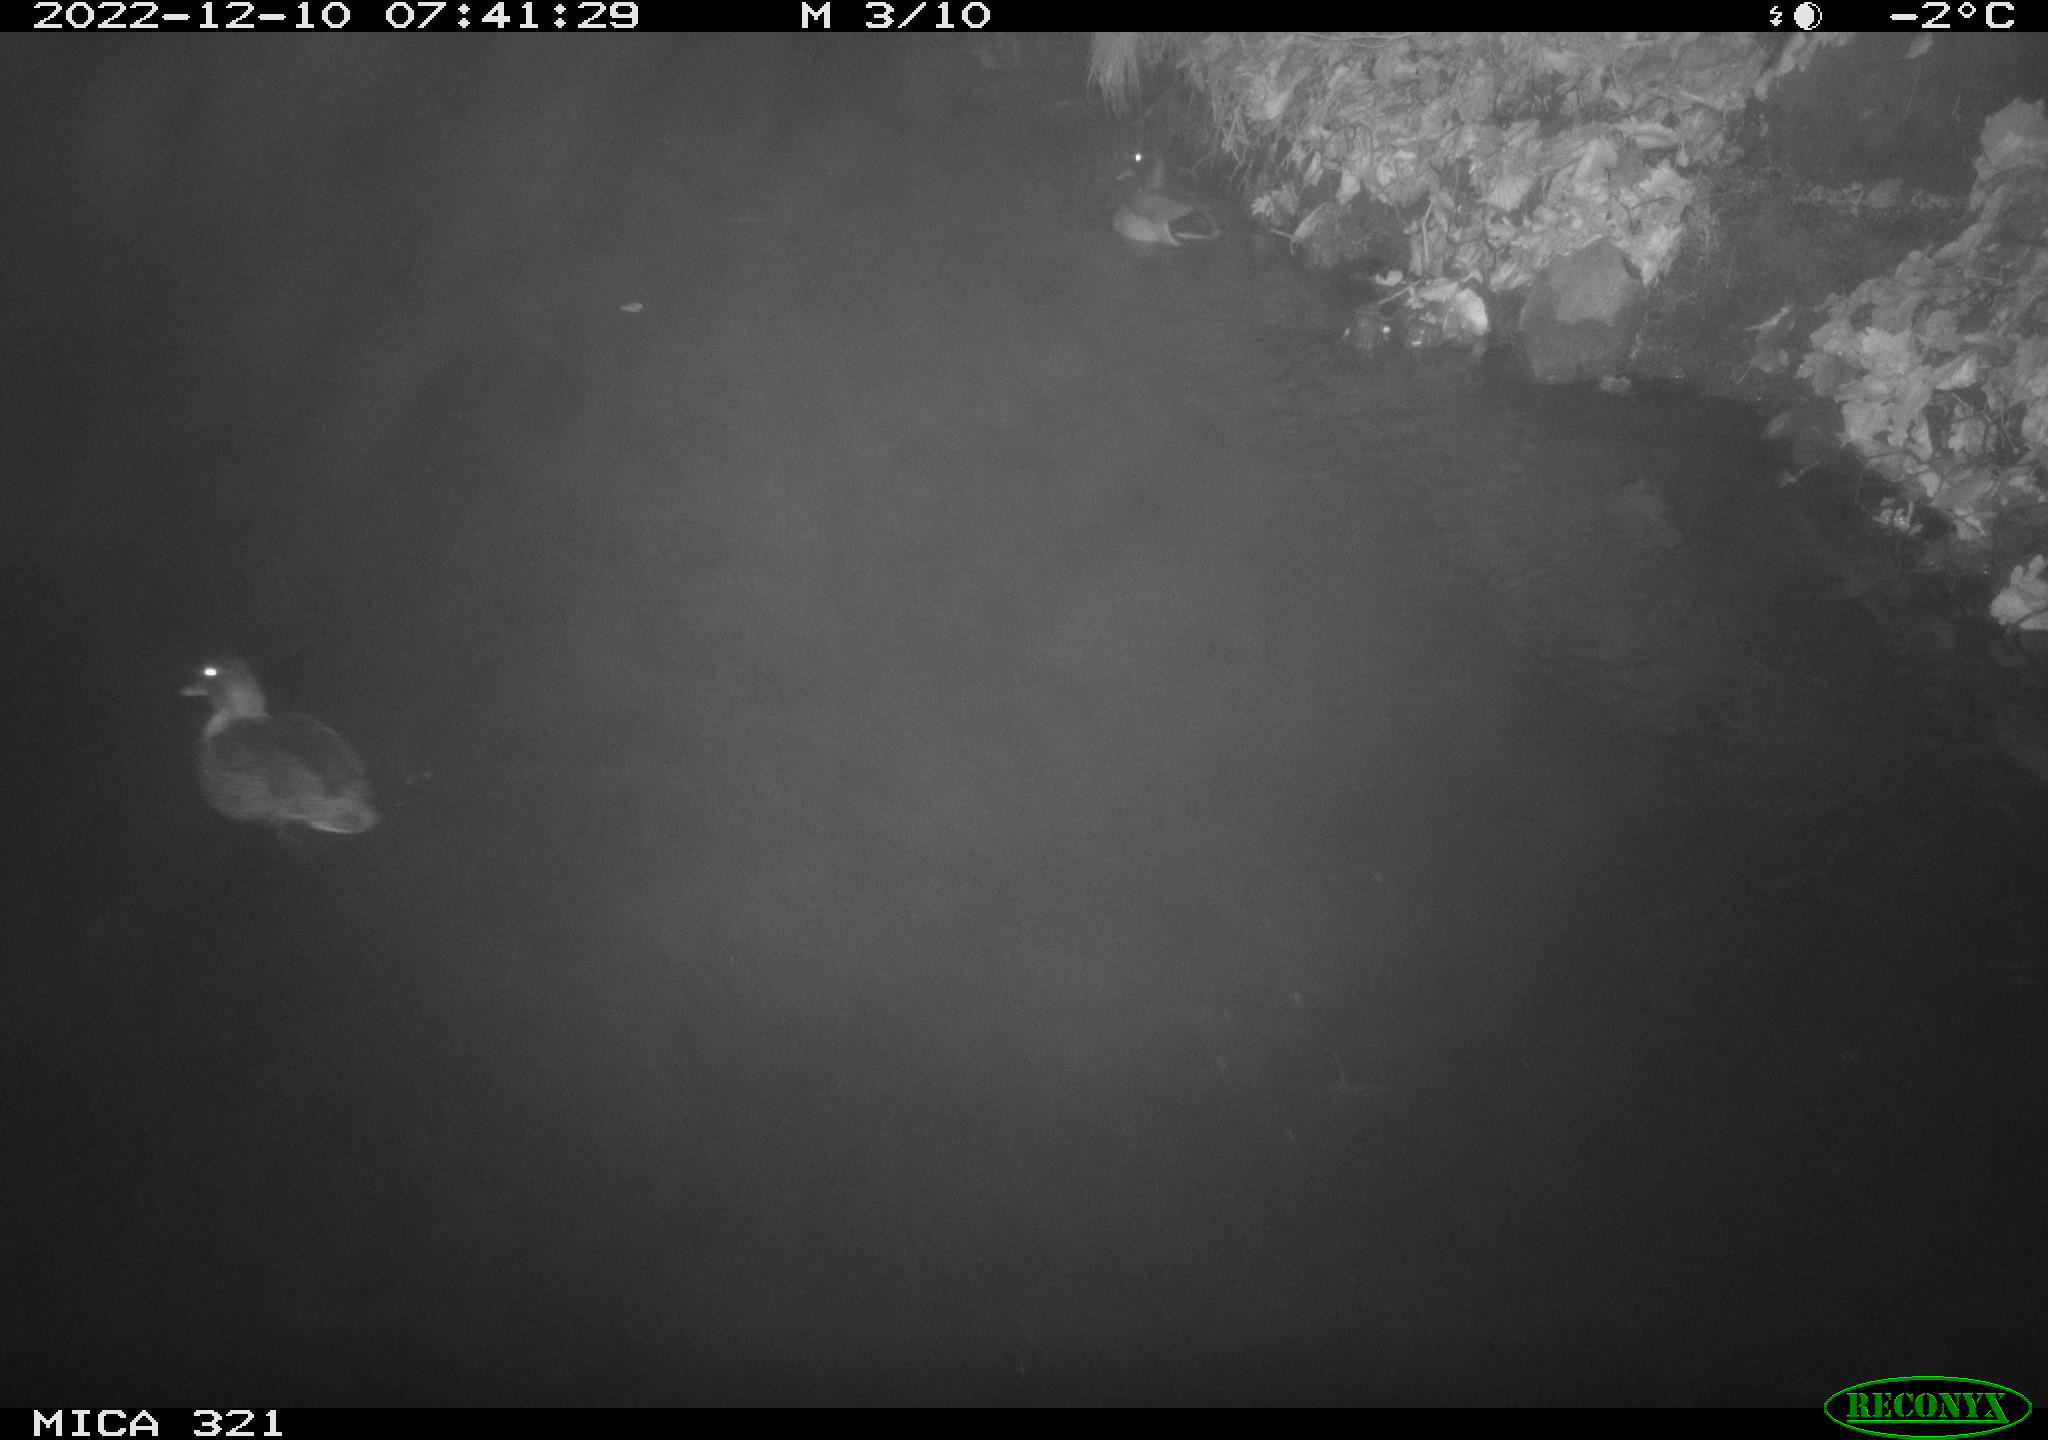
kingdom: Animalia
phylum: Chordata
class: Aves
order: Anseriformes
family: Anatidae
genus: Anas
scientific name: Anas
